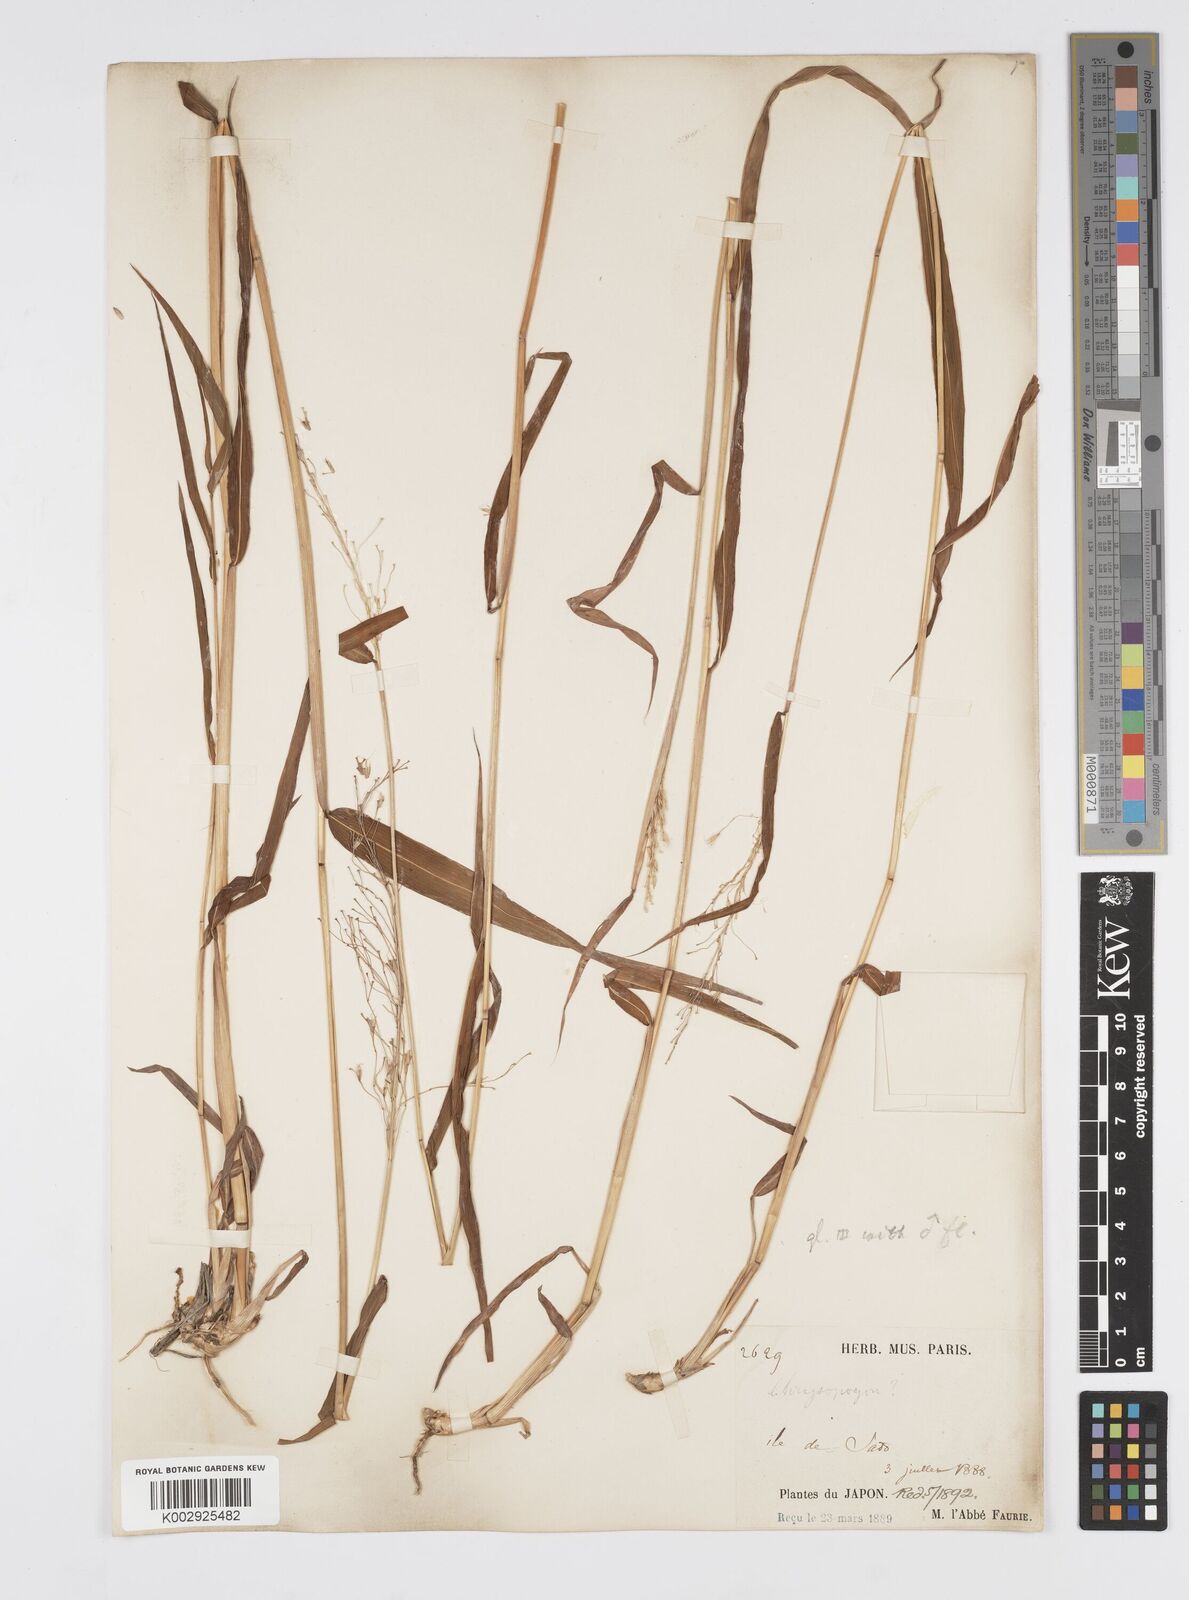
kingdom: Plantae
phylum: Tracheophyta
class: Liliopsida
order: Poales
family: Poaceae
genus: Spodiopogon
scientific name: Spodiopogon depauperatus
